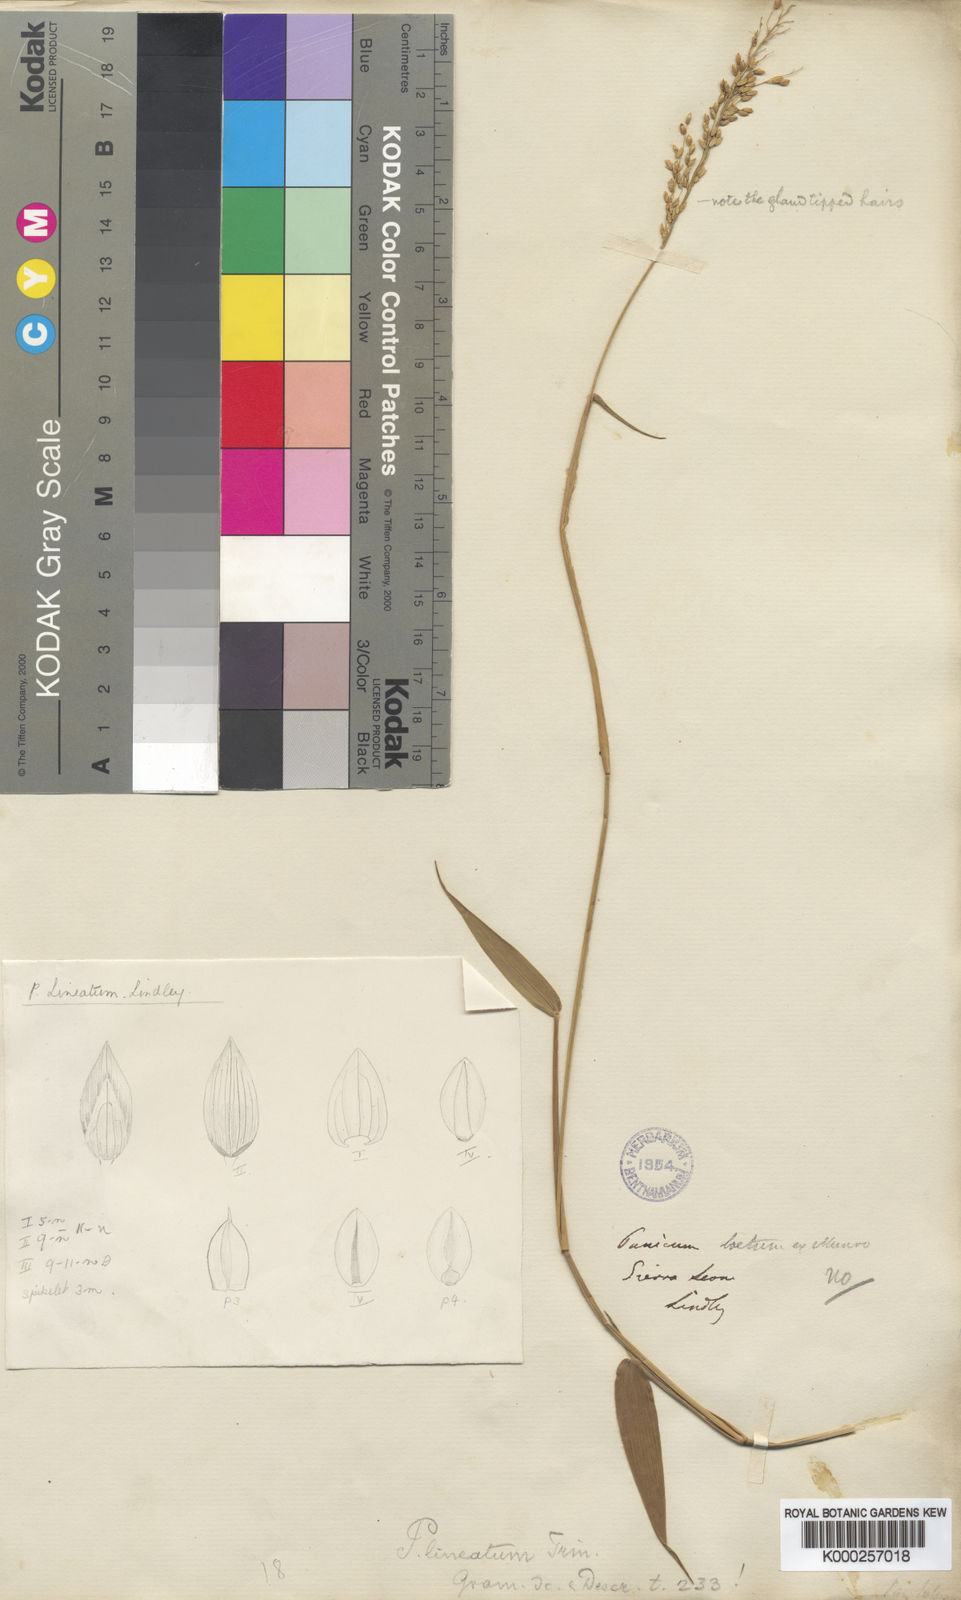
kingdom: Plantae
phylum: Tracheophyta
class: Liliopsida
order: Poales
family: Poaceae
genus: Adenochloa
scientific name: Adenochloa sadinii
